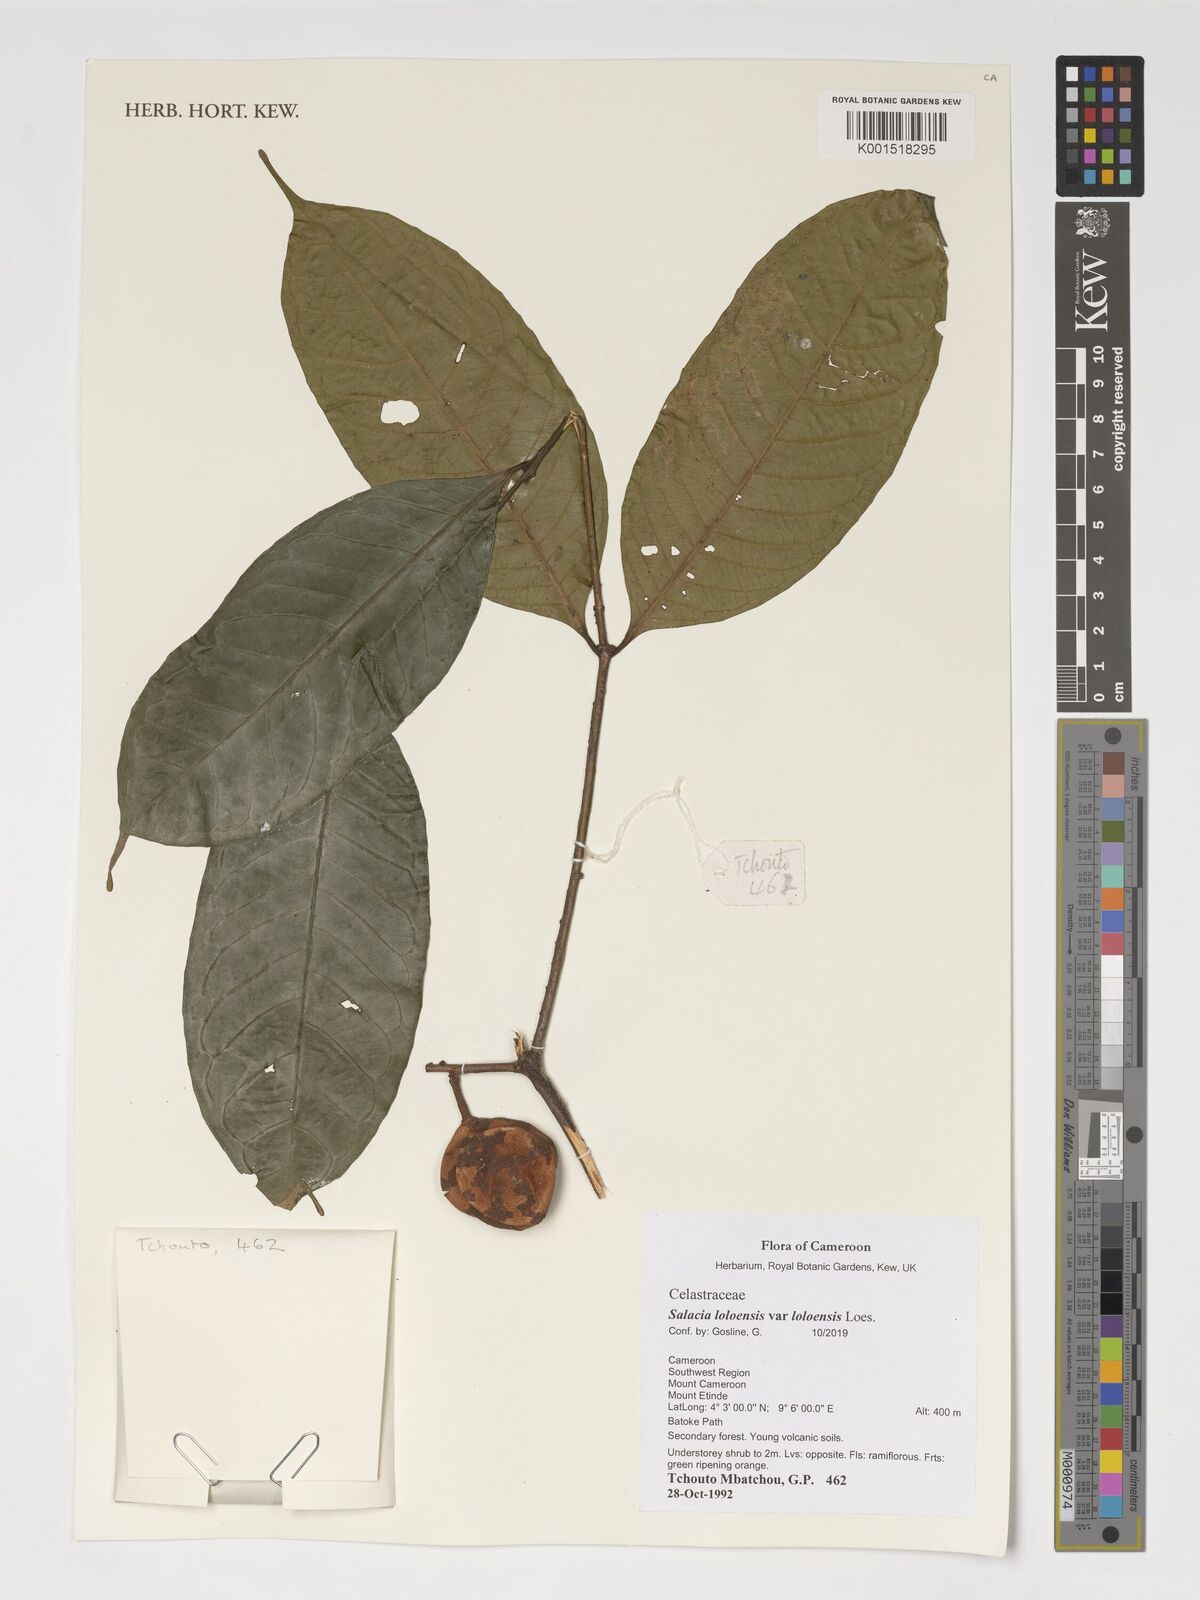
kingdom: Plantae
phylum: Tracheophyta
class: Magnoliopsida
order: Celastrales
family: Celastraceae
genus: Salacia
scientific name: Salacia loloensis
